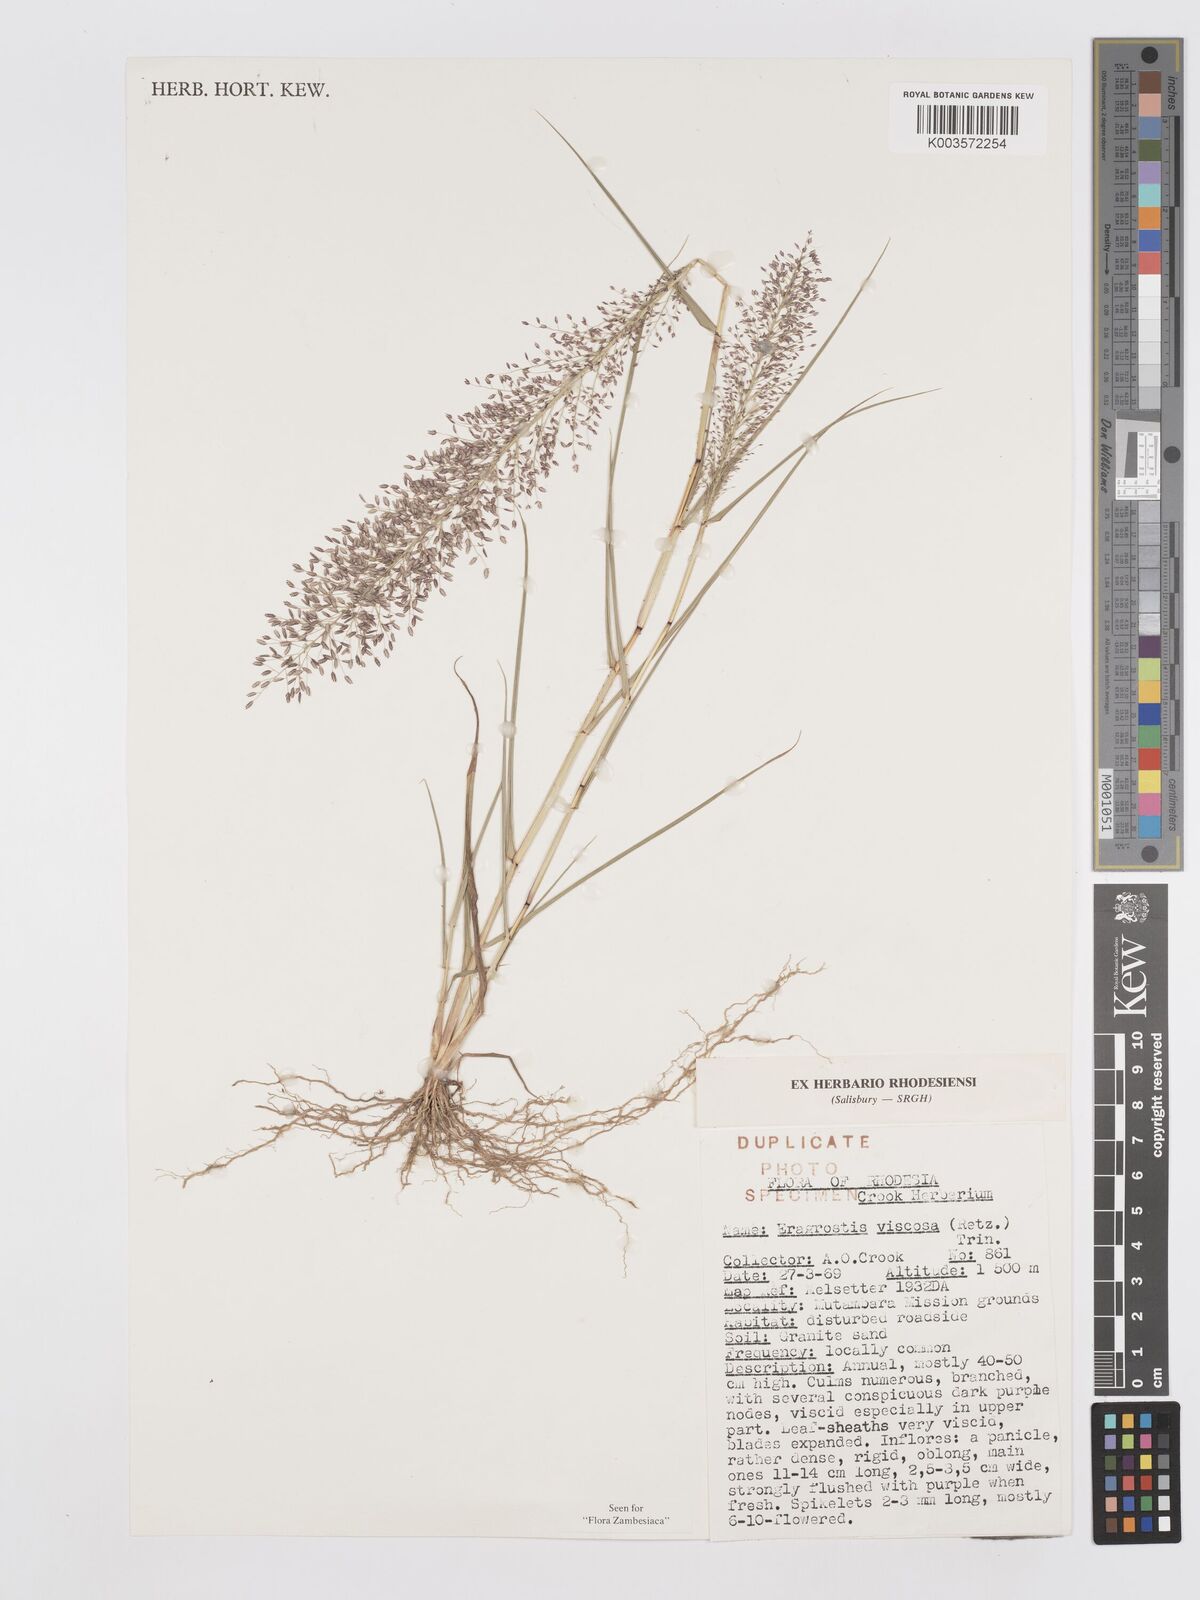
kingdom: Plantae
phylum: Tracheophyta
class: Liliopsida
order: Poales
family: Poaceae
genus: Eragrostis
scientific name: Eragrostis
